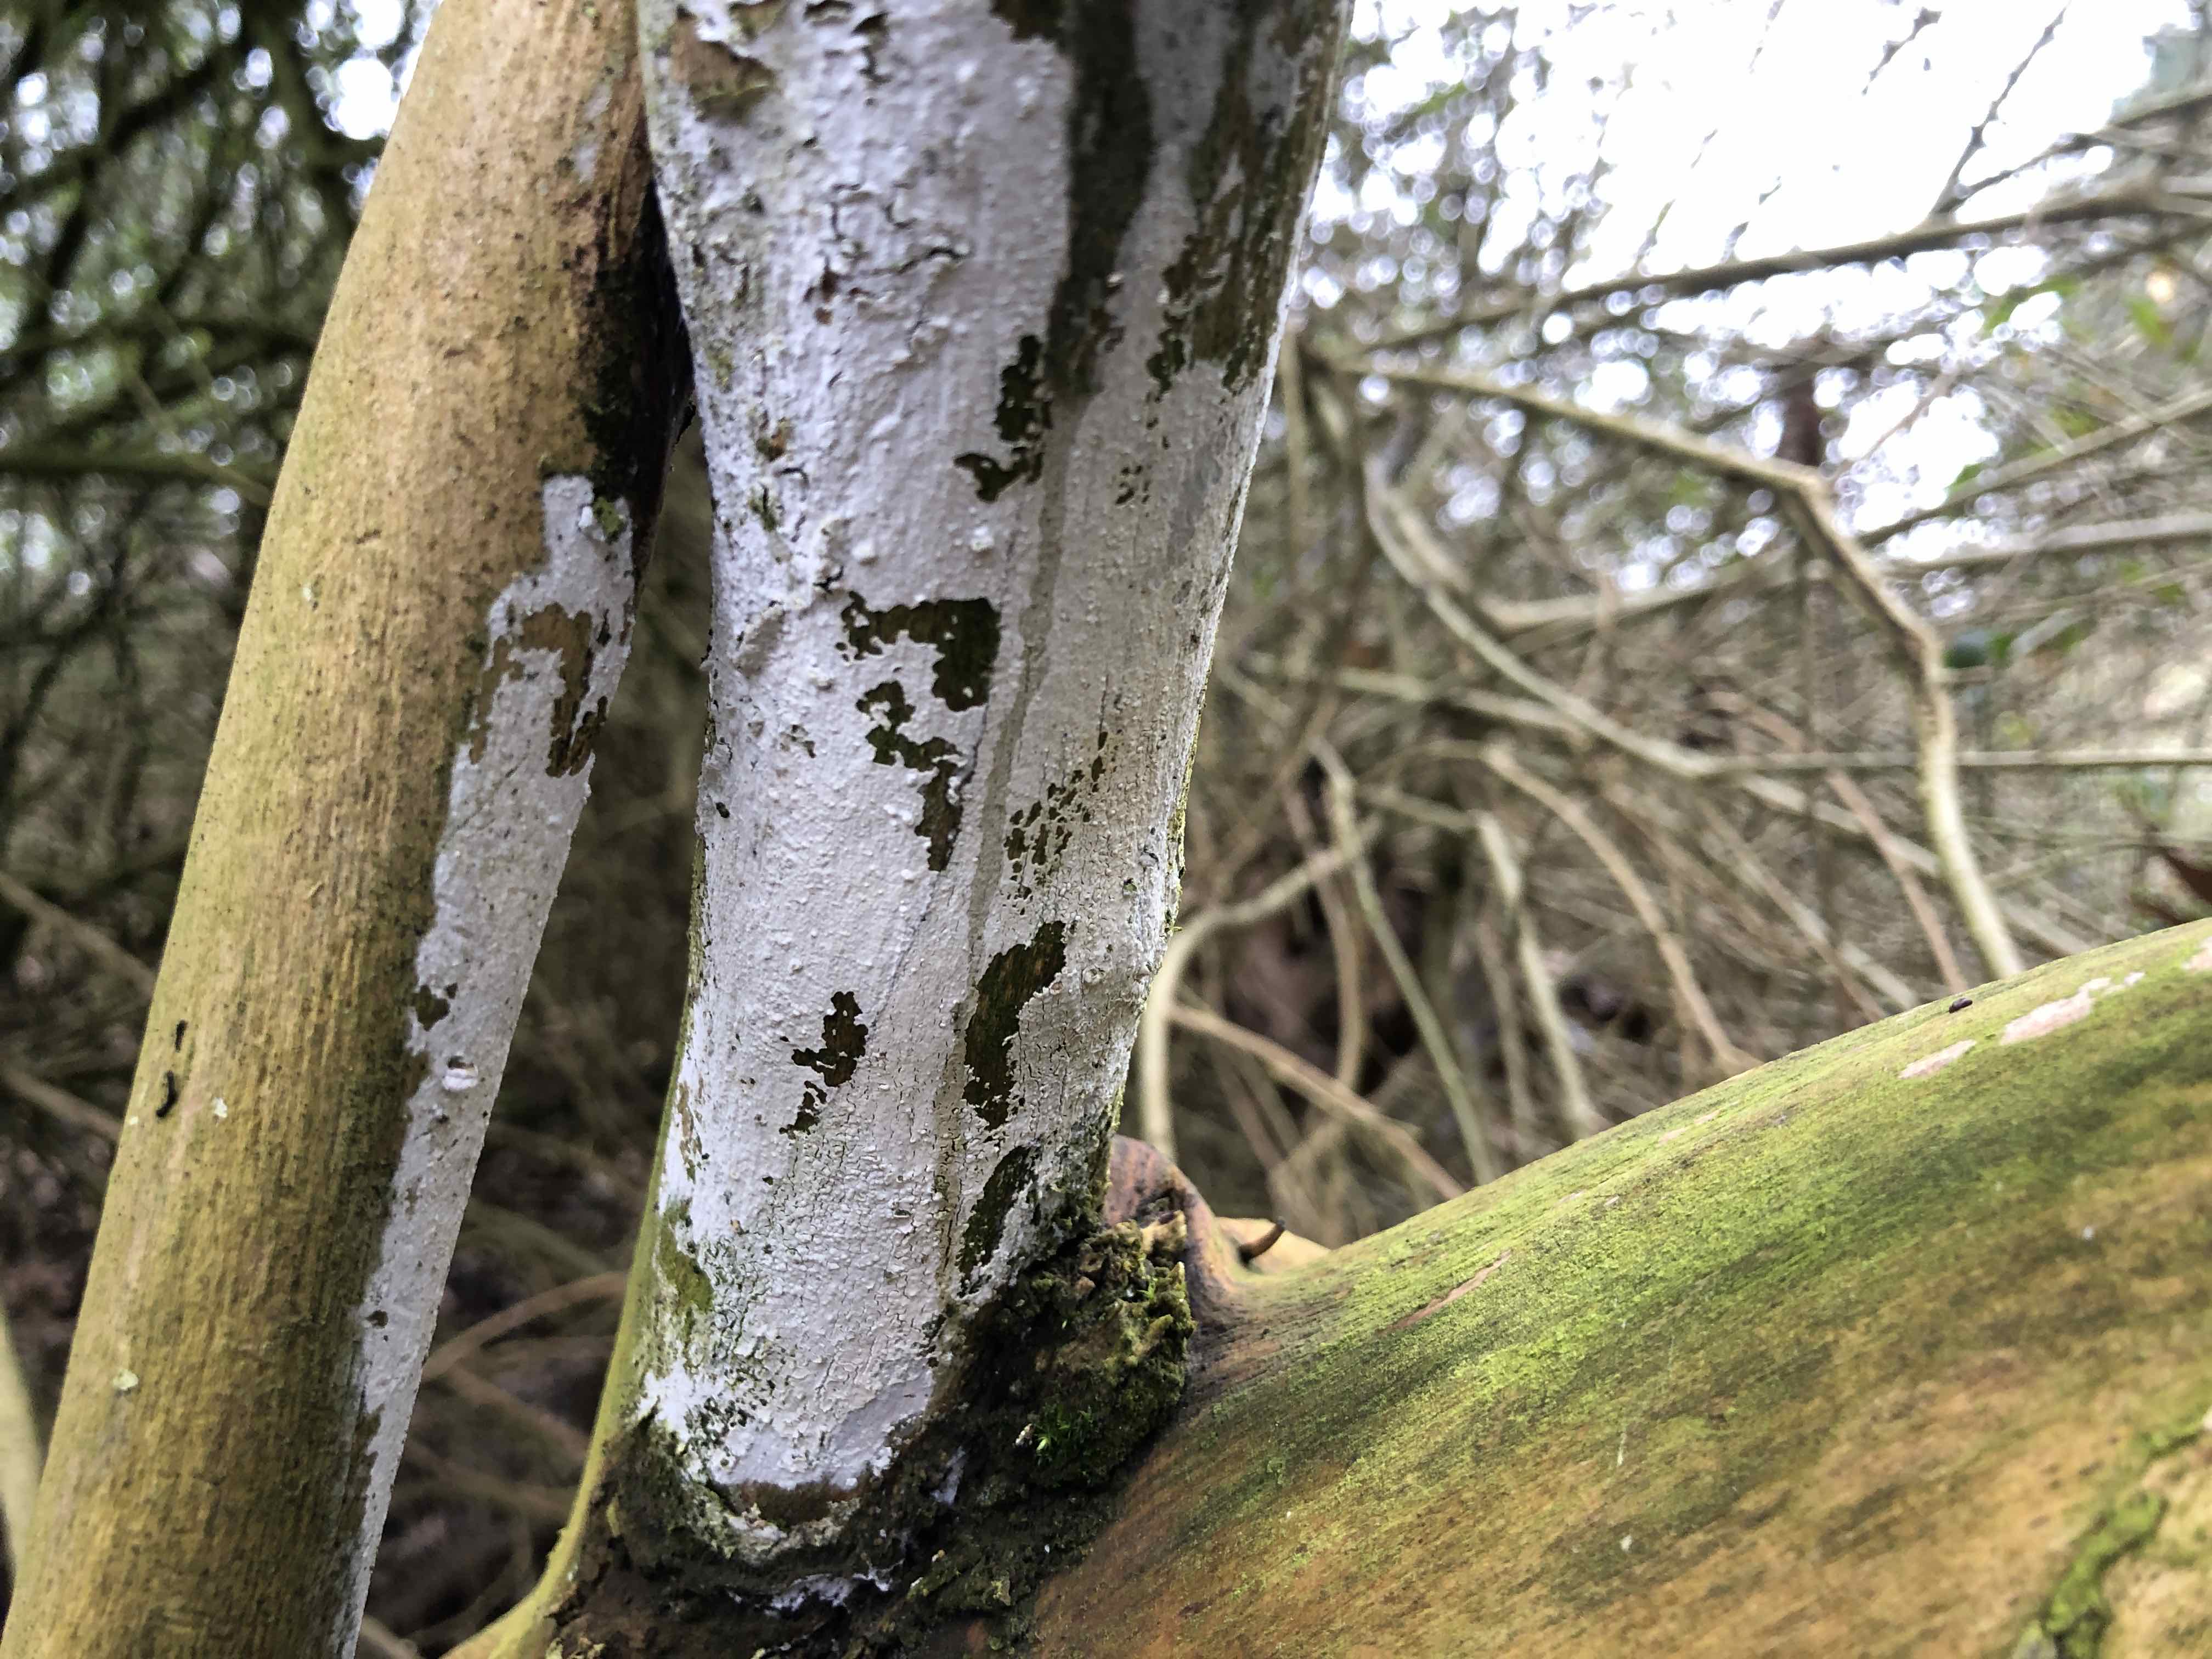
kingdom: Fungi
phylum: Basidiomycota
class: Agaricomycetes
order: Corticiales
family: Corticiaceae
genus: Lyomyces
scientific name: Lyomyces sambuci
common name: almindelig hyldehinde
